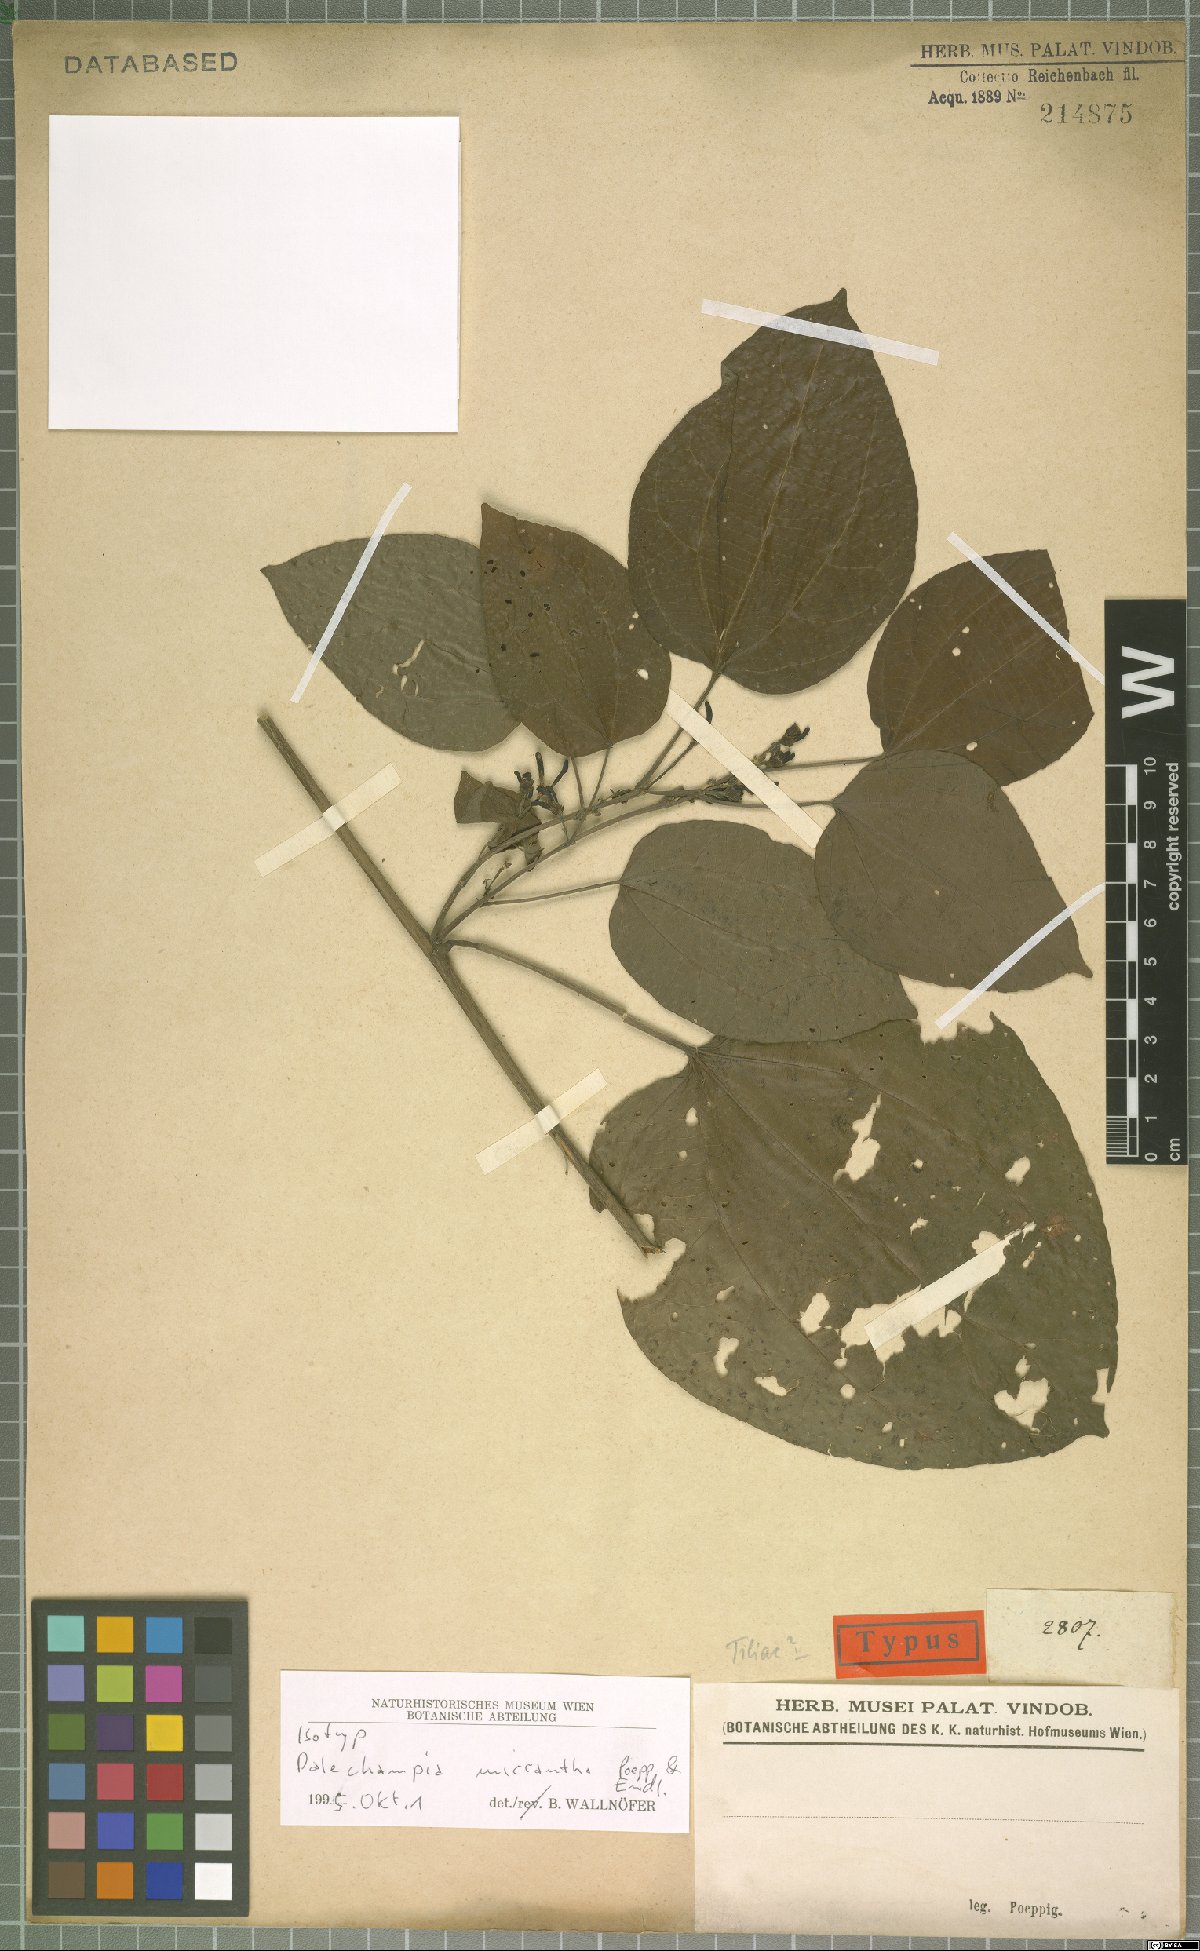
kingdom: Plantae
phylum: Tracheophyta
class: Magnoliopsida
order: Malpighiales
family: Euphorbiaceae
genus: Dalechampia
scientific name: Dalechampia micrantha
